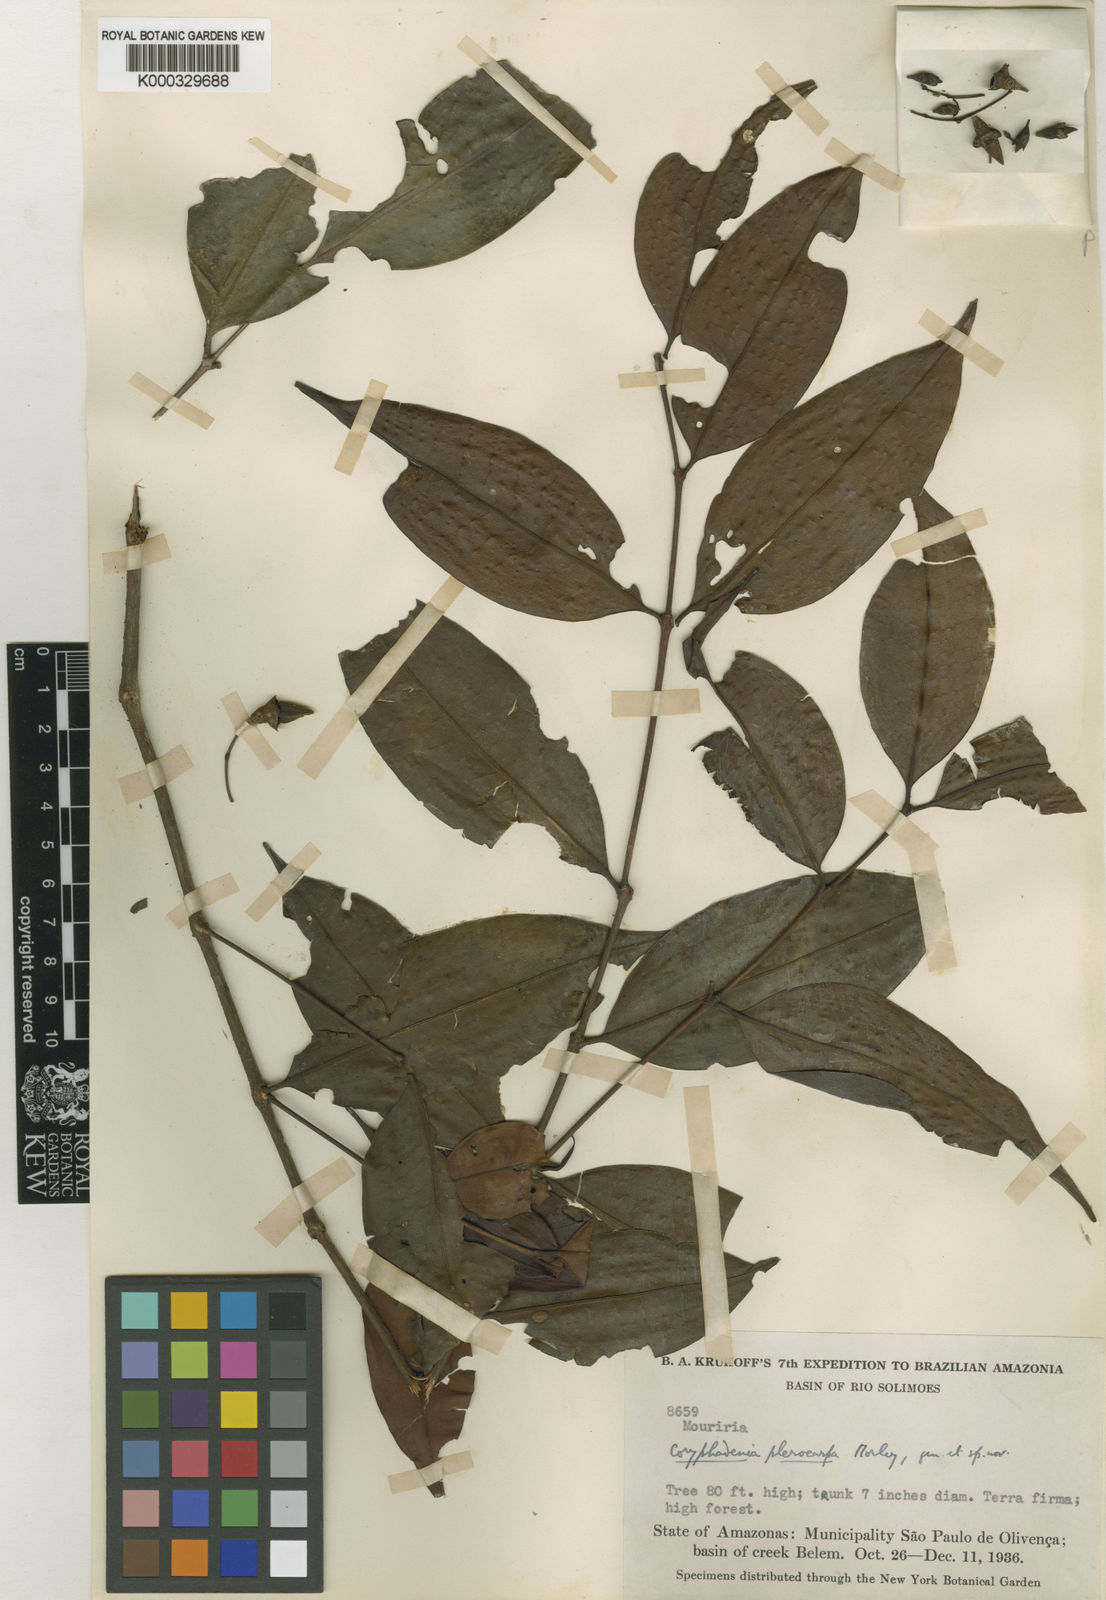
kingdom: Plantae
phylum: Tracheophyta
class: Magnoliopsida
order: Myrtales
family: Melastomataceae
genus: Votomita
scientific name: Votomita plerocarpa
